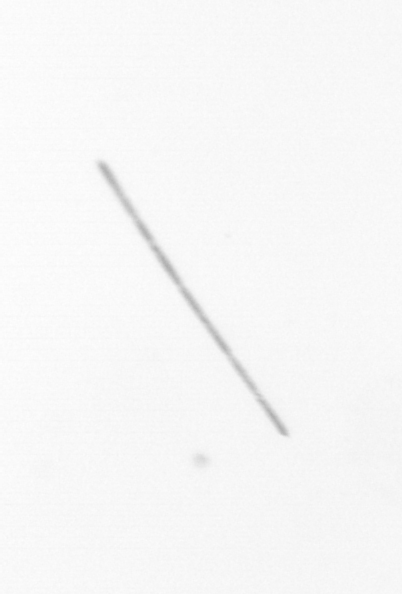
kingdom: Chromista
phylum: Ochrophyta
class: Bacillariophyceae
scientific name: Bacillariophyceae
